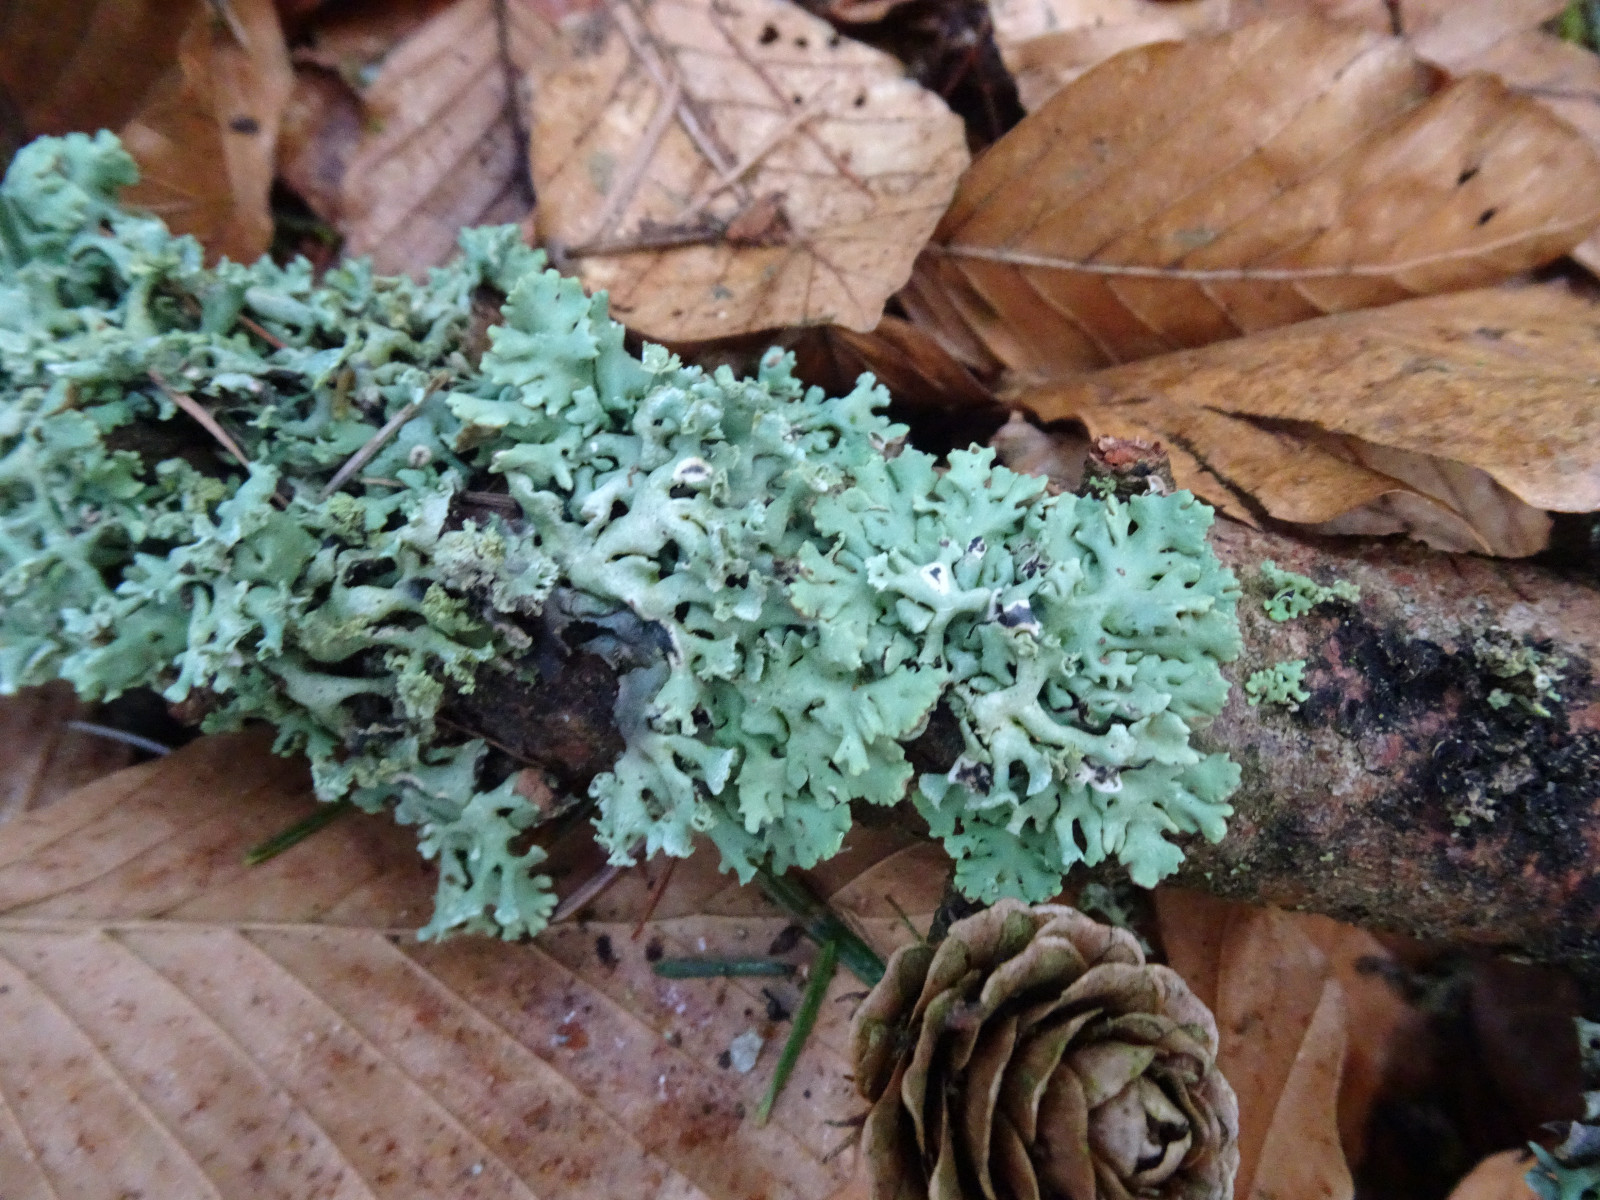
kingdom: Fungi
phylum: Ascomycota
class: Lecanoromycetes
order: Lecanorales
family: Parmeliaceae
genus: Hypogymnia
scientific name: Hypogymnia physodes
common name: almindelig kvistlav
